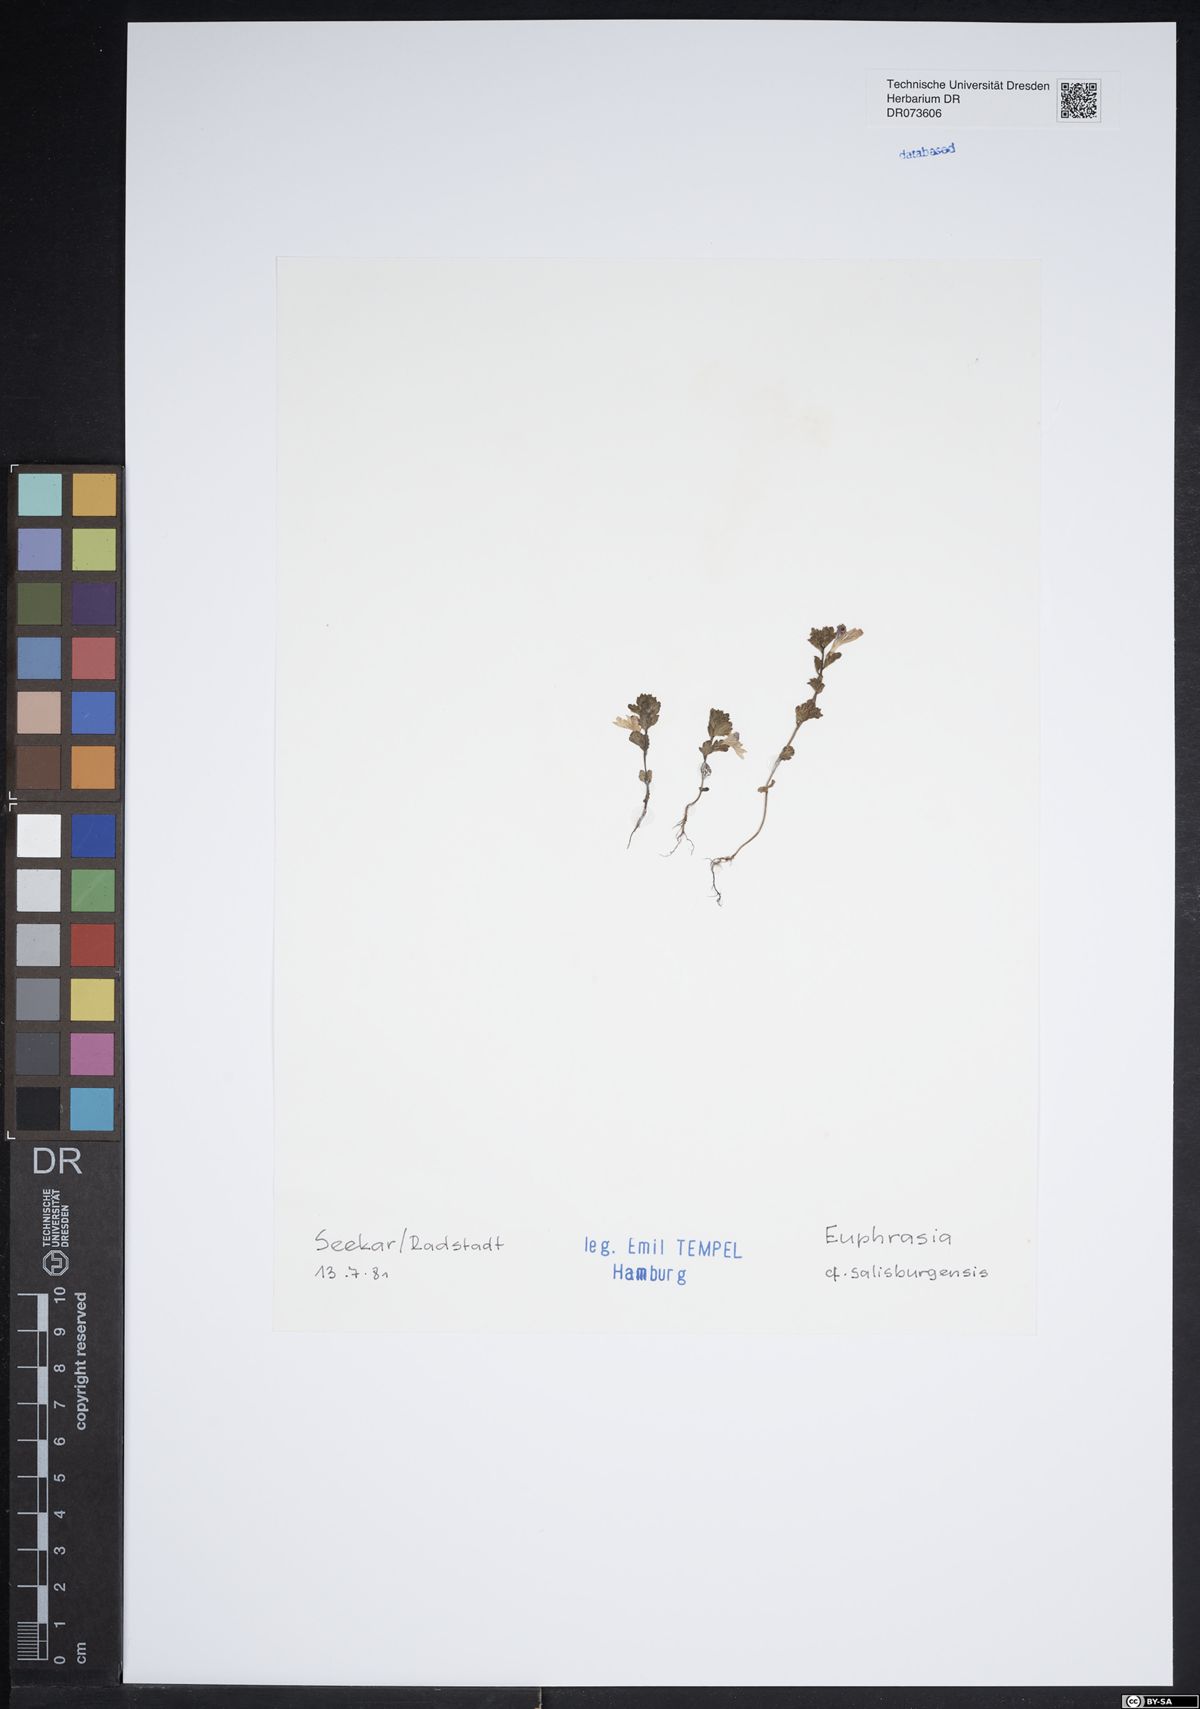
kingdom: Plantae
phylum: Tracheophyta
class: Magnoliopsida
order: Lamiales
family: Orobanchaceae
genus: Euphrasia
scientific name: Euphrasia salisburgensis
